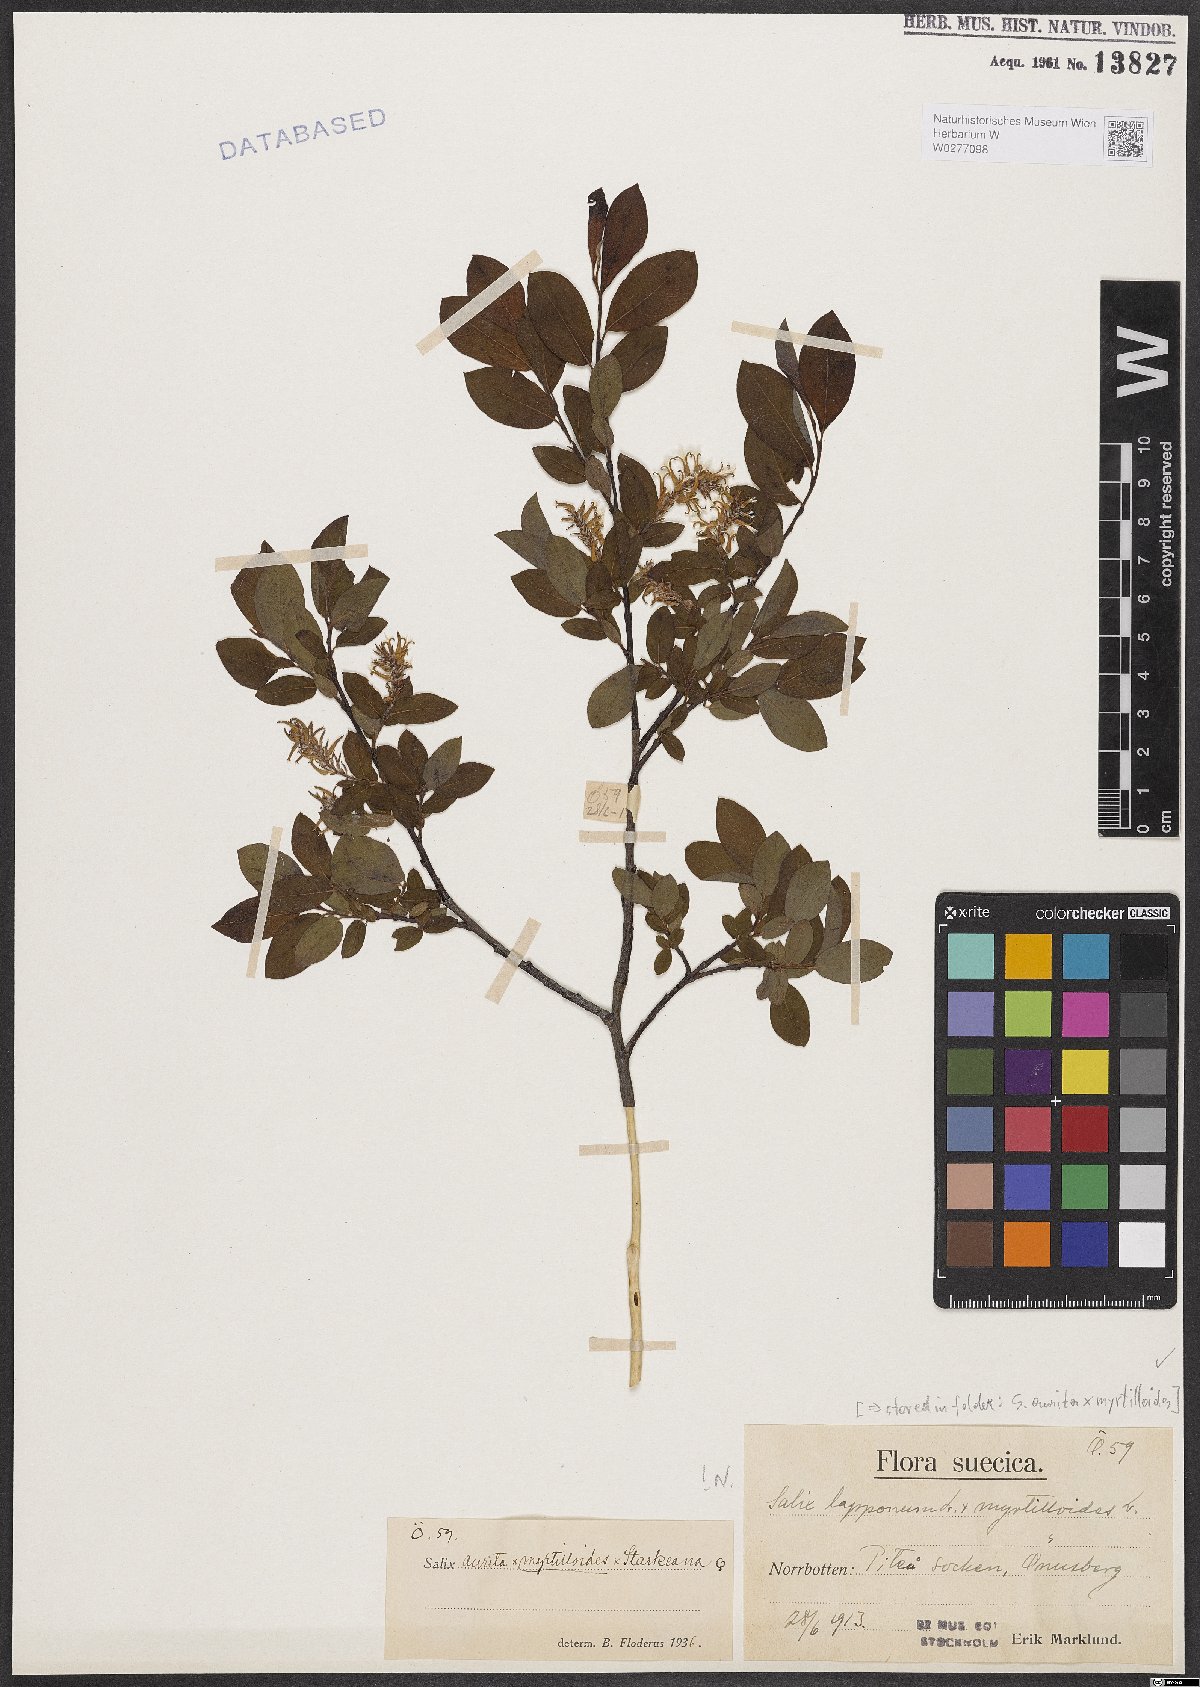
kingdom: Plantae
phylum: Tracheophyta
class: Magnoliopsida
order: Malpighiales
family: Salicaceae
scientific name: Salicaceae
